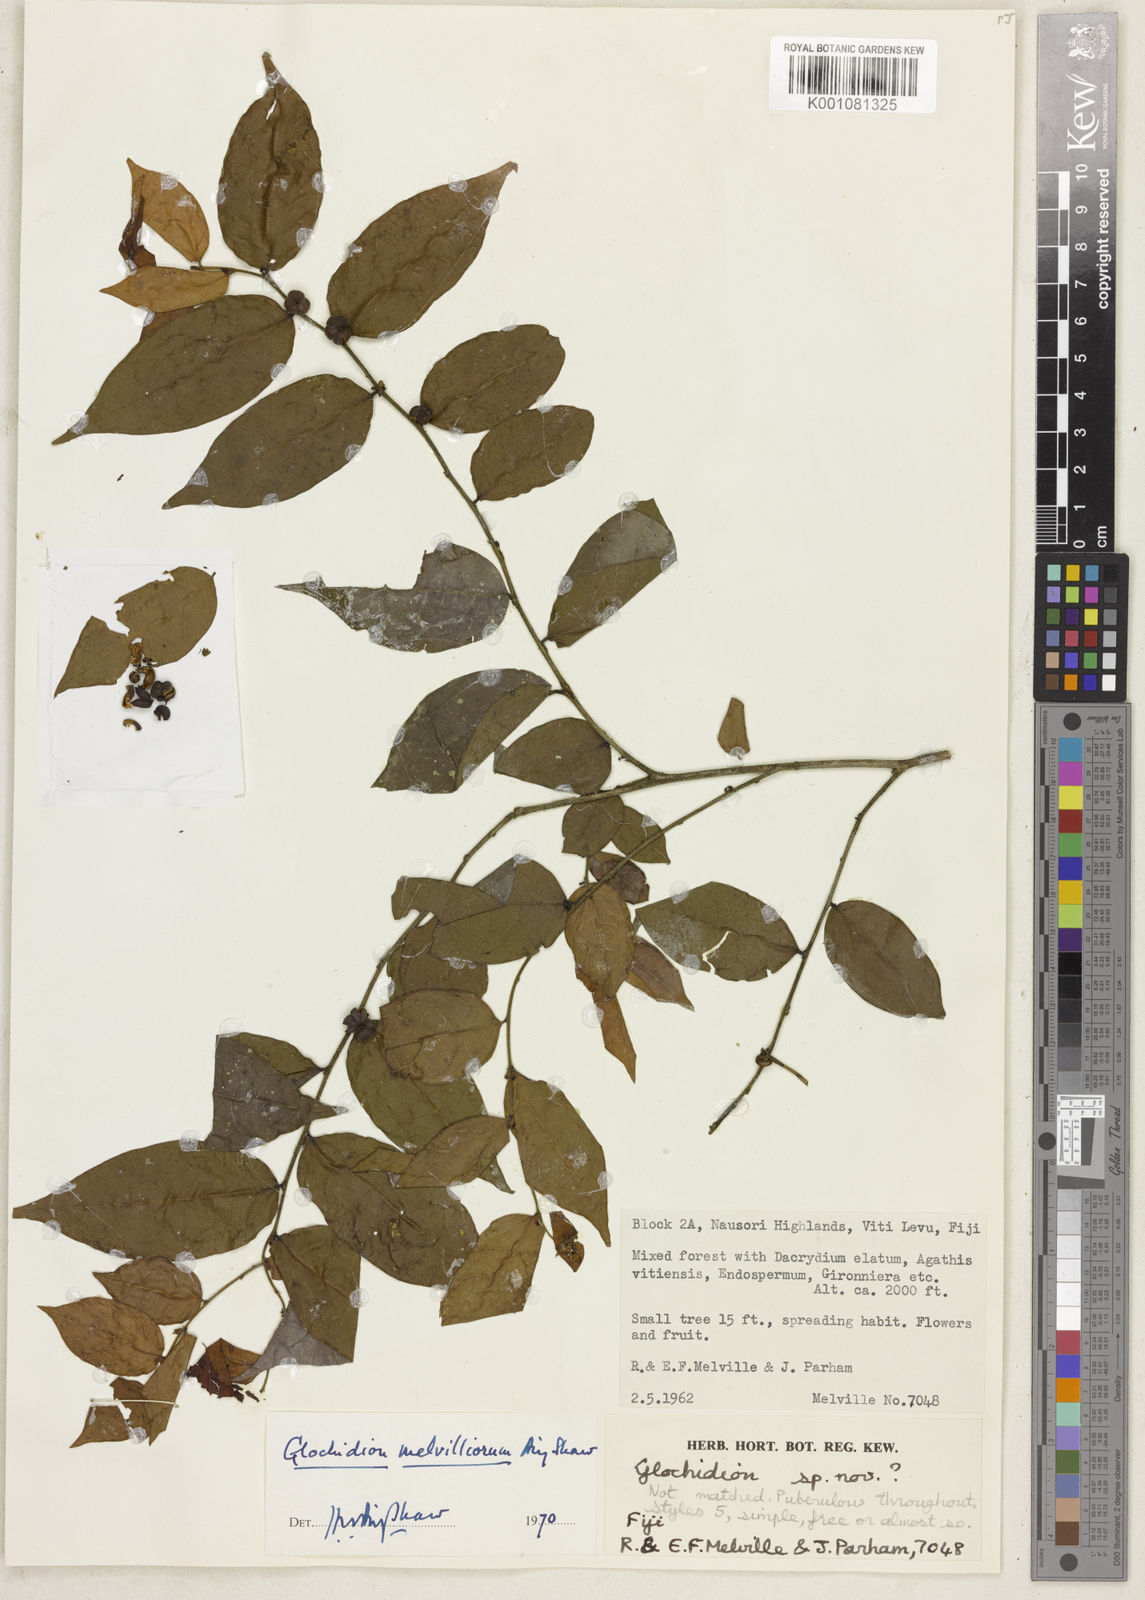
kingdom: Plantae
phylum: Tracheophyta
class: Magnoliopsida
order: Malpighiales
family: Phyllanthaceae
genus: Glochidion
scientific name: Glochidion melvilleorum
